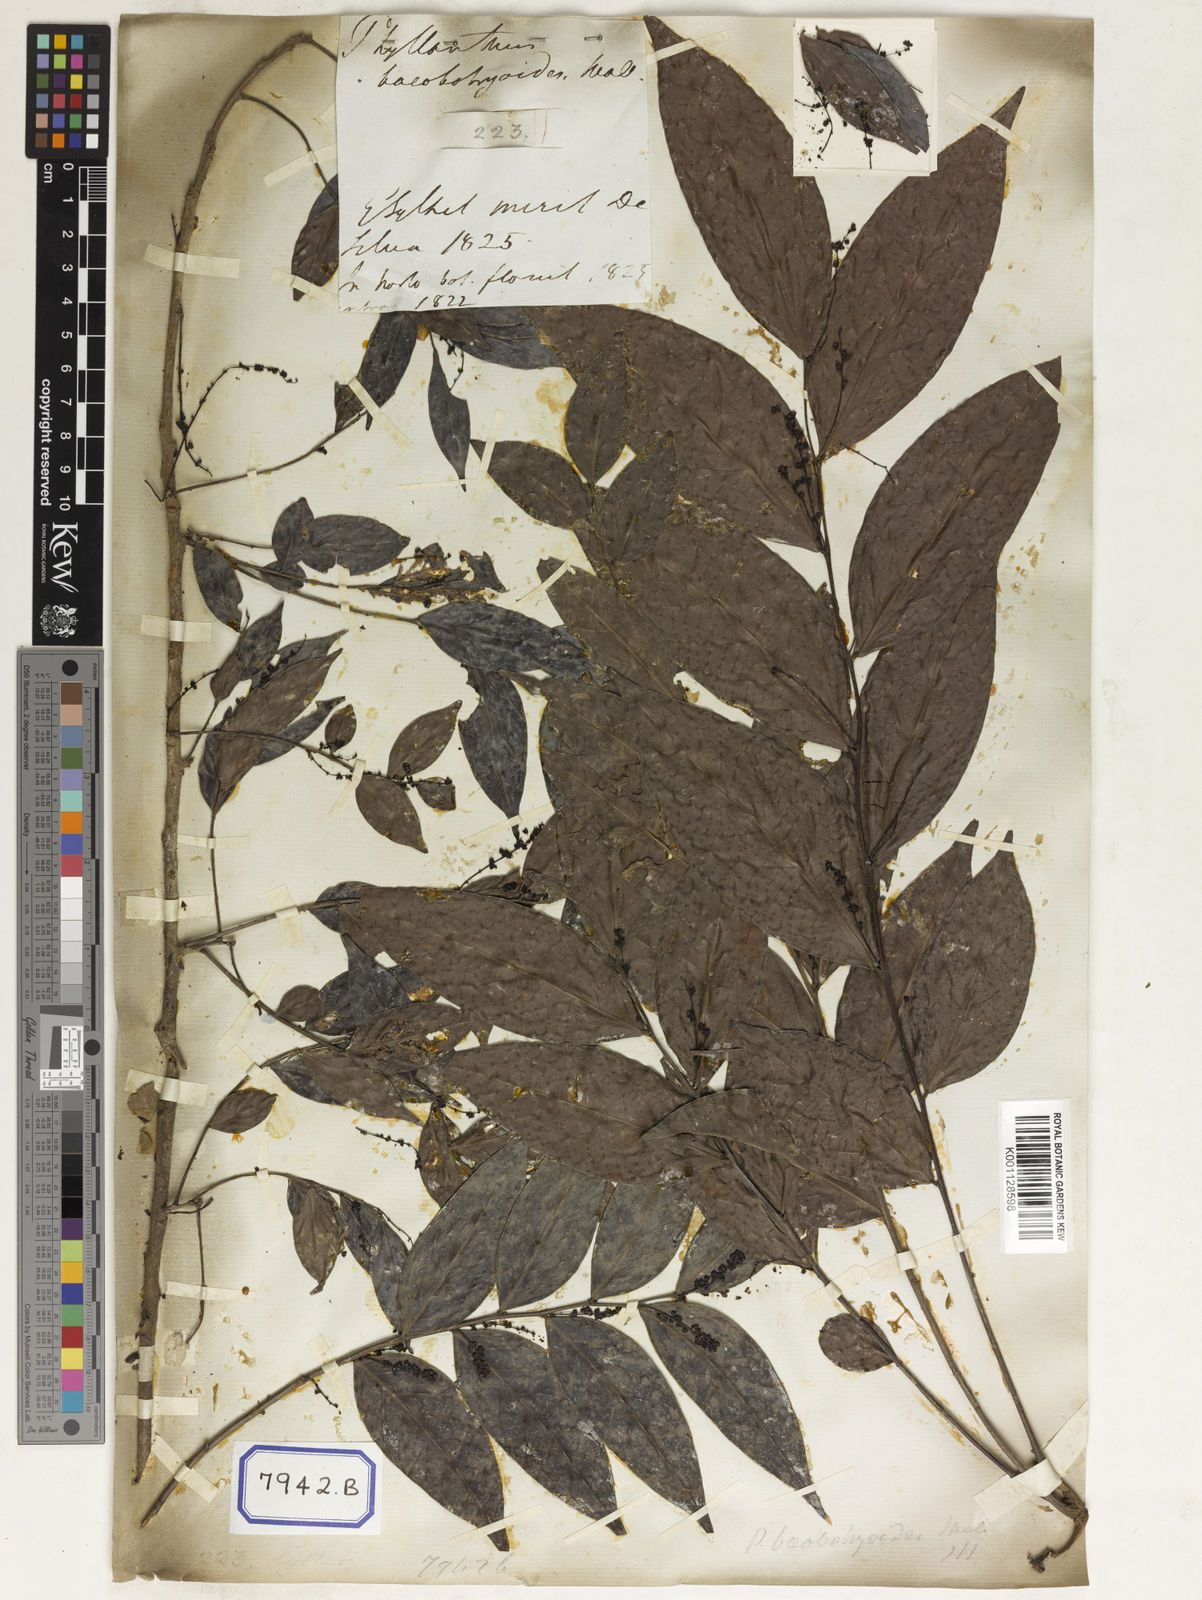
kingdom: Plantae
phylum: Tracheophyta
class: Magnoliopsida
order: Malpighiales
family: Euphorbiaceae
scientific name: Euphorbiaceae
